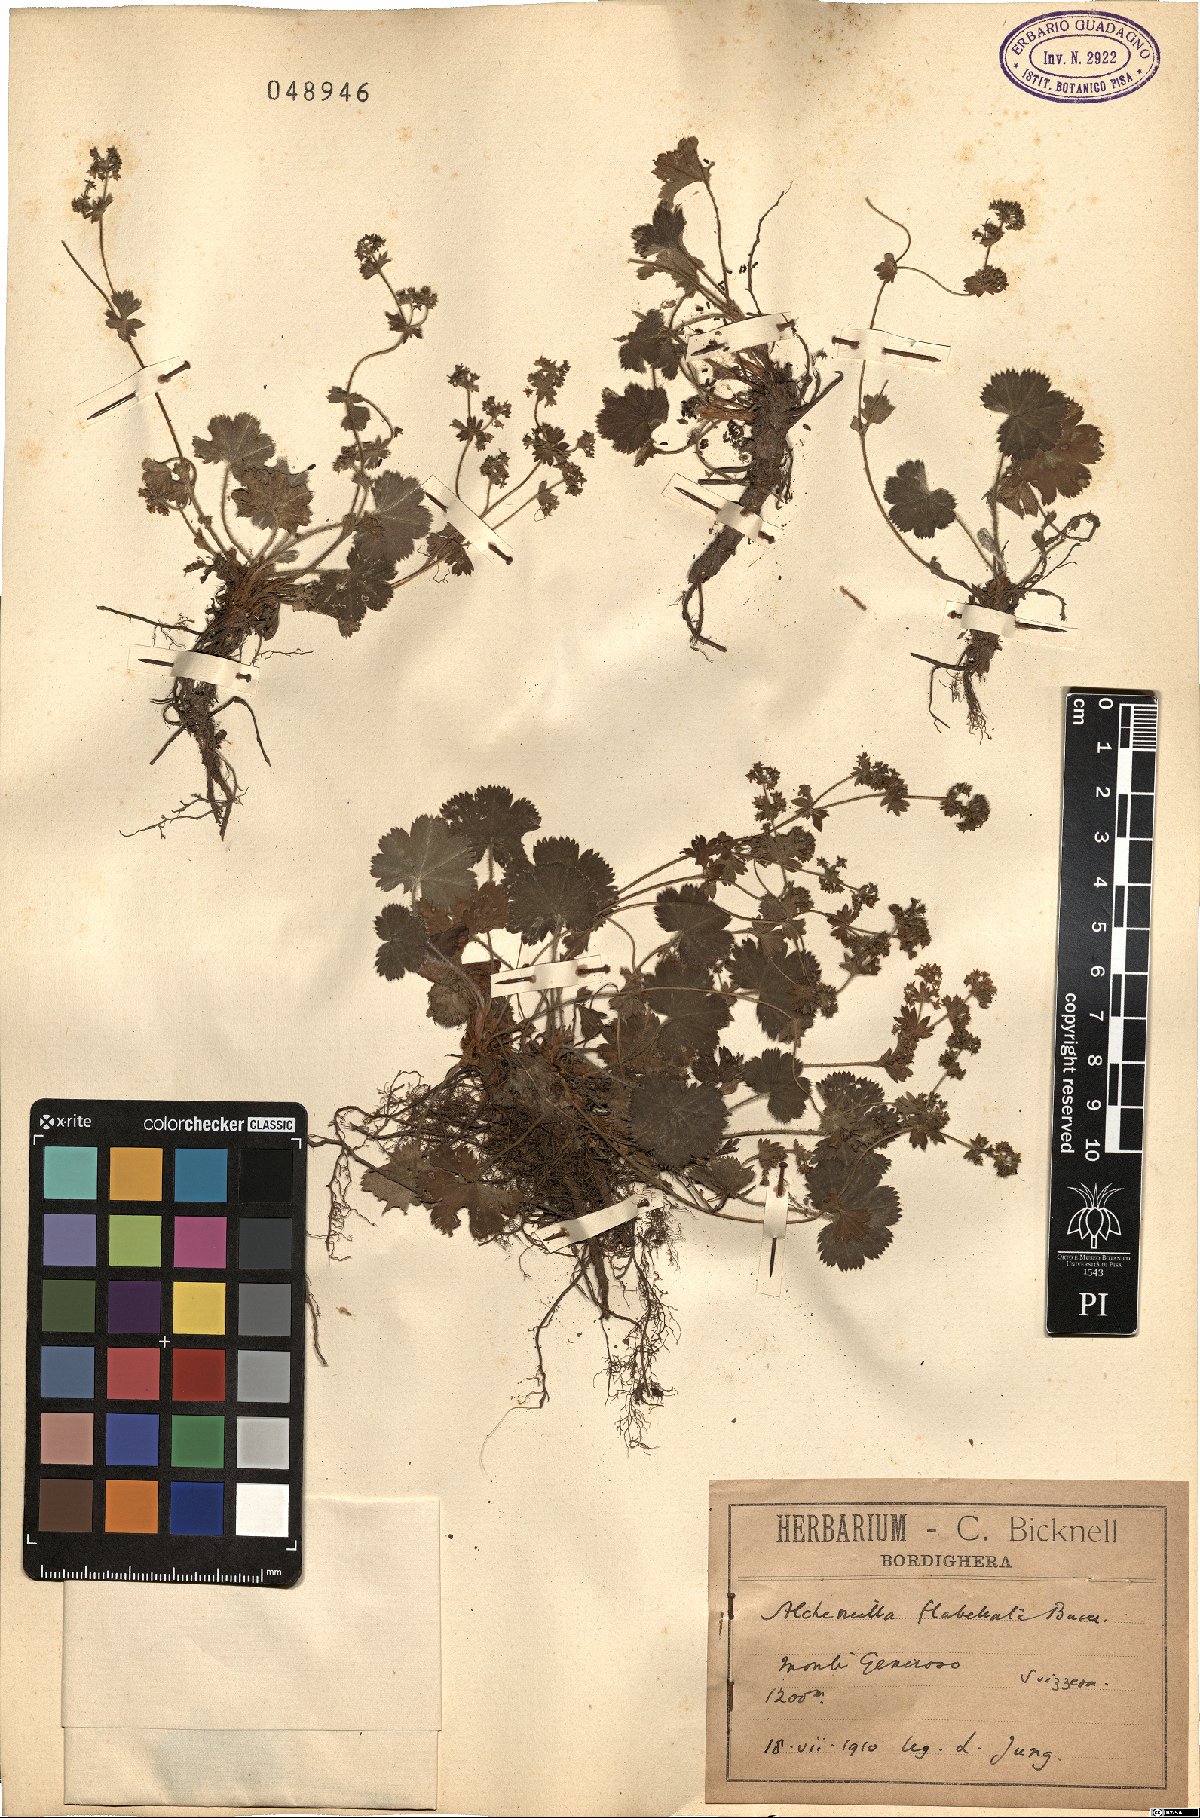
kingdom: Plantae
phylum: Tracheophyta
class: Magnoliopsida
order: Rosales
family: Rosaceae
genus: Alchemilla
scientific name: Alchemilla flabellata
